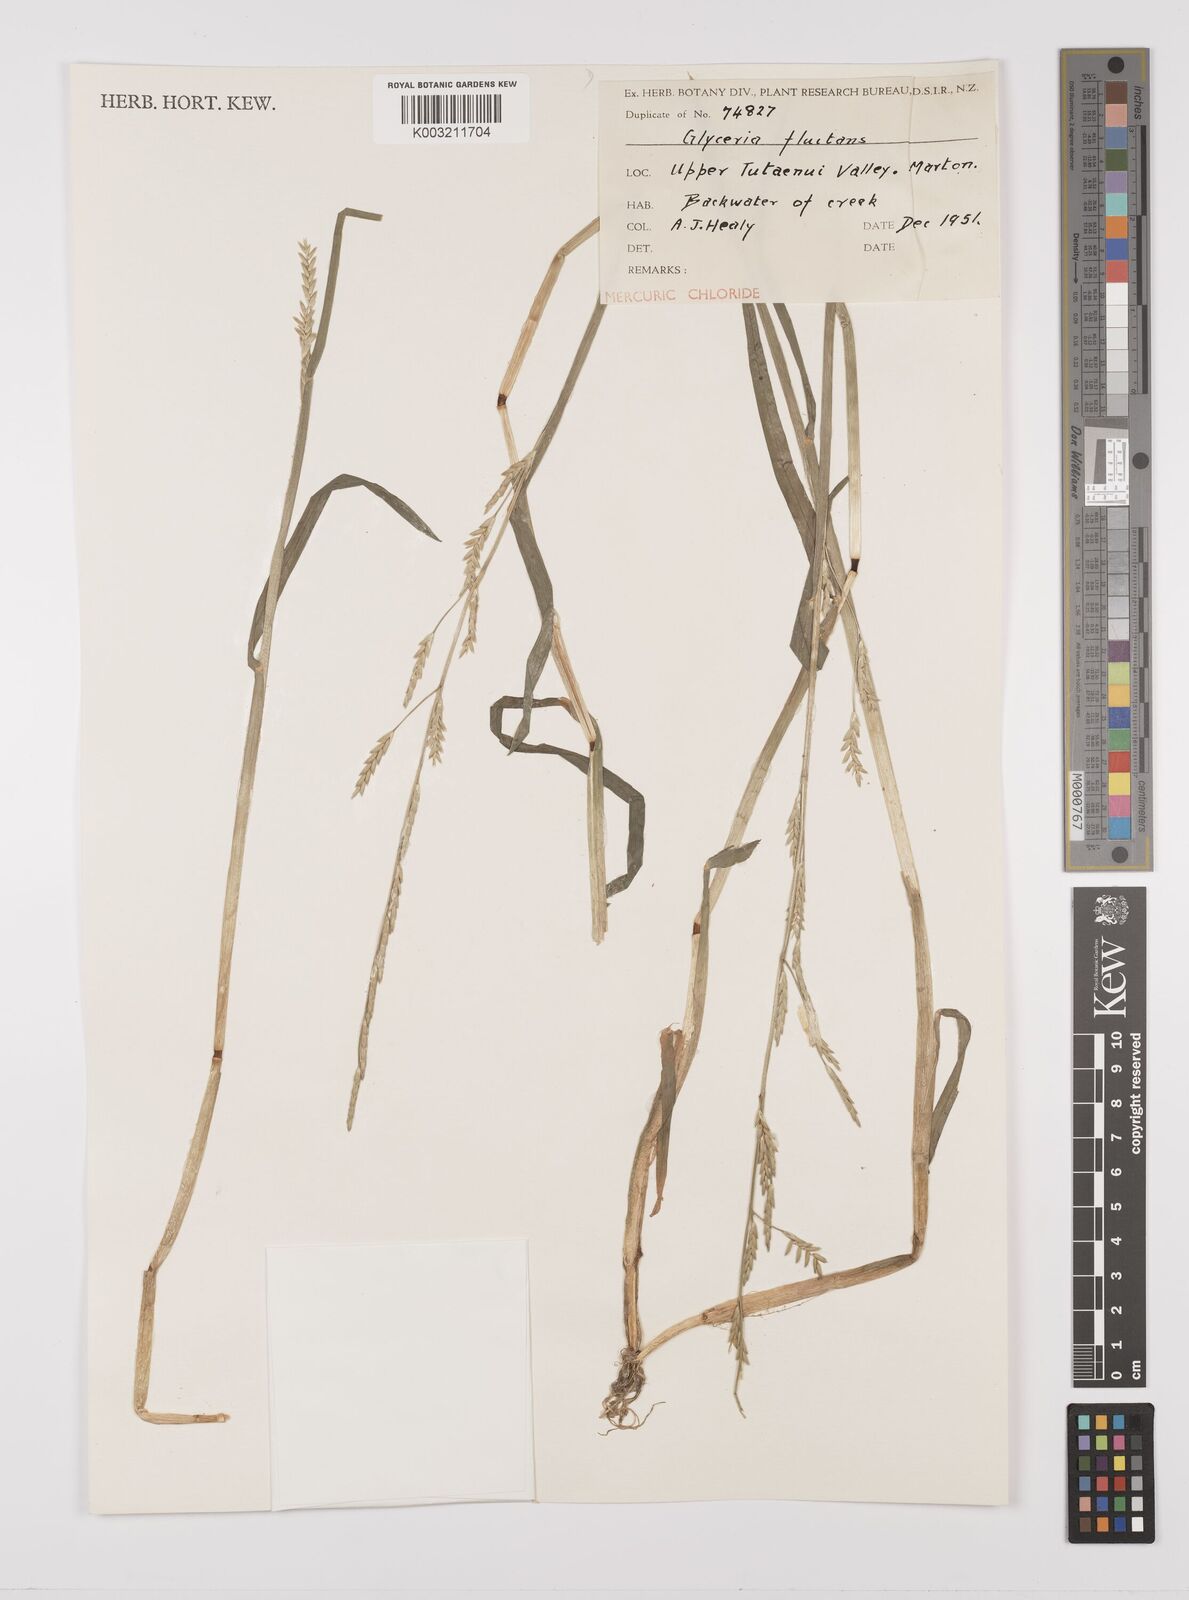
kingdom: Plantae
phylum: Tracheophyta
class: Liliopsida
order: Poales
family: Poaceae
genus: Glyceria
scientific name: Glyceria fluitans
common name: Floating sweet-grass
